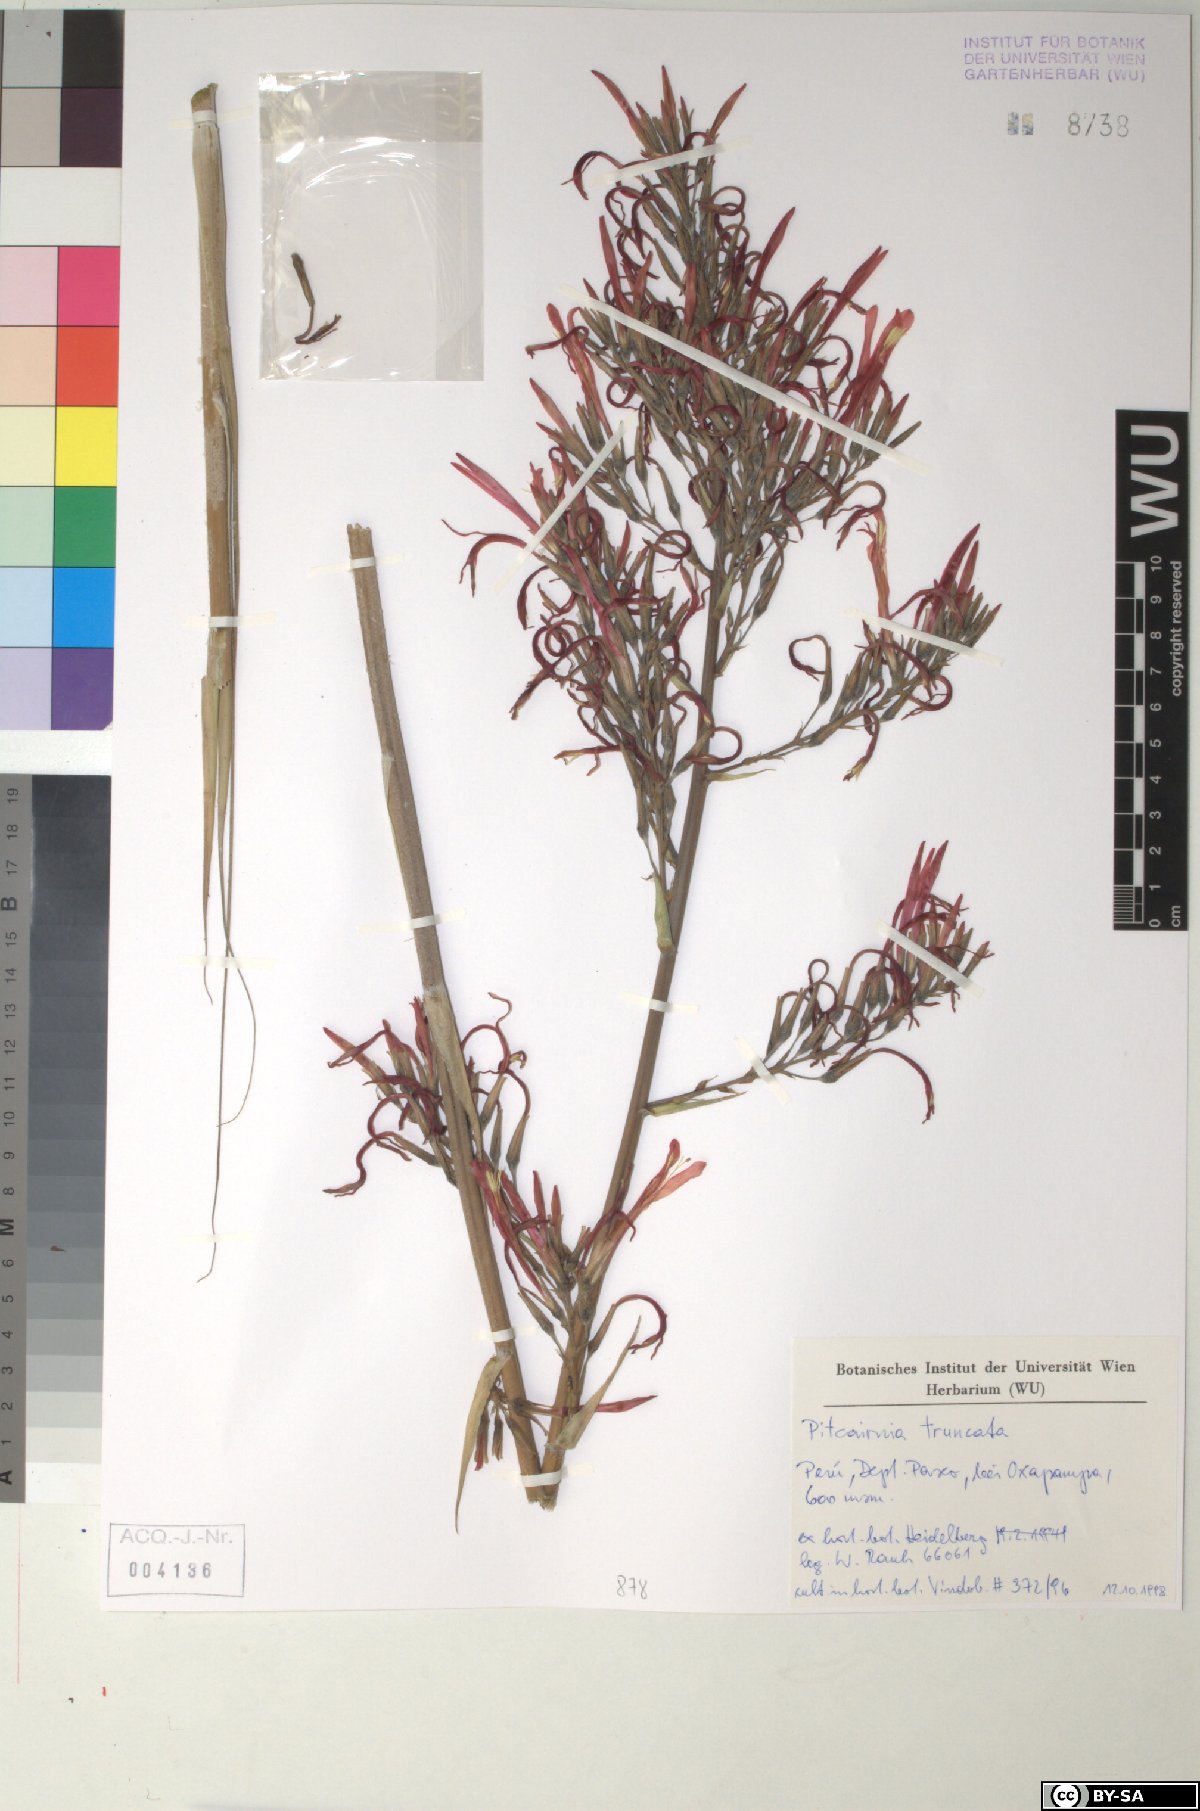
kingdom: Plantae
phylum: Tracheophyta
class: Liliopsida
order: Poales
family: Bromeliaceae
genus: Pitcairnia
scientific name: Pitcairnia truncata
